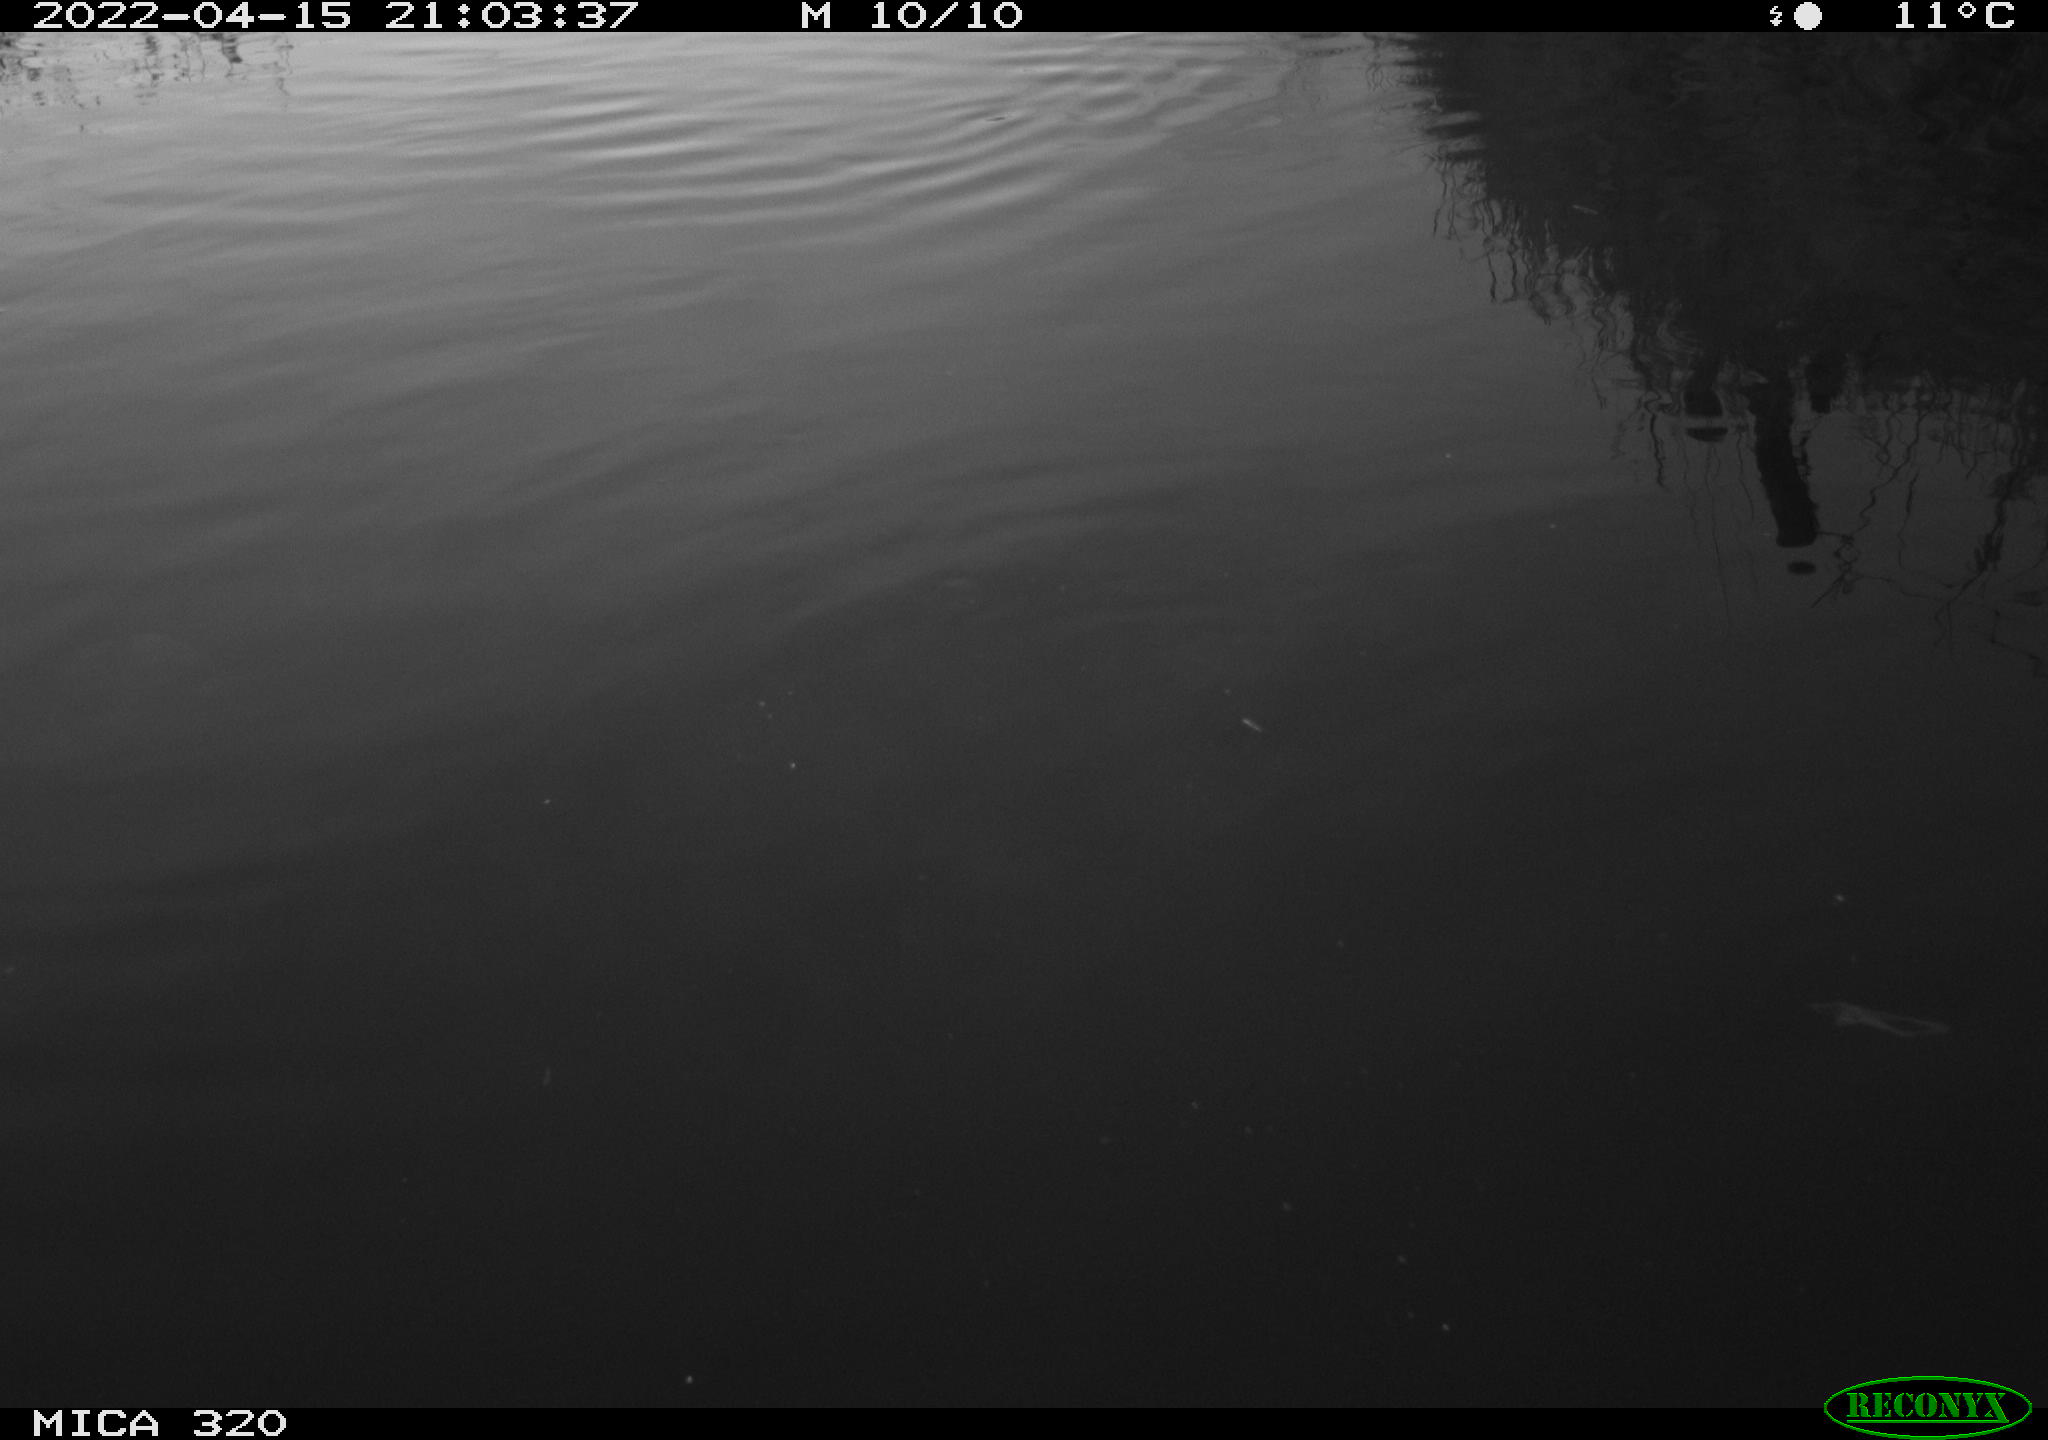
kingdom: Animalia
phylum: Chordata
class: Aves
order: Gruiformes
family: Rallidae
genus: Gallinula
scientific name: Gallinula chloropus
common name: Common moorhen
